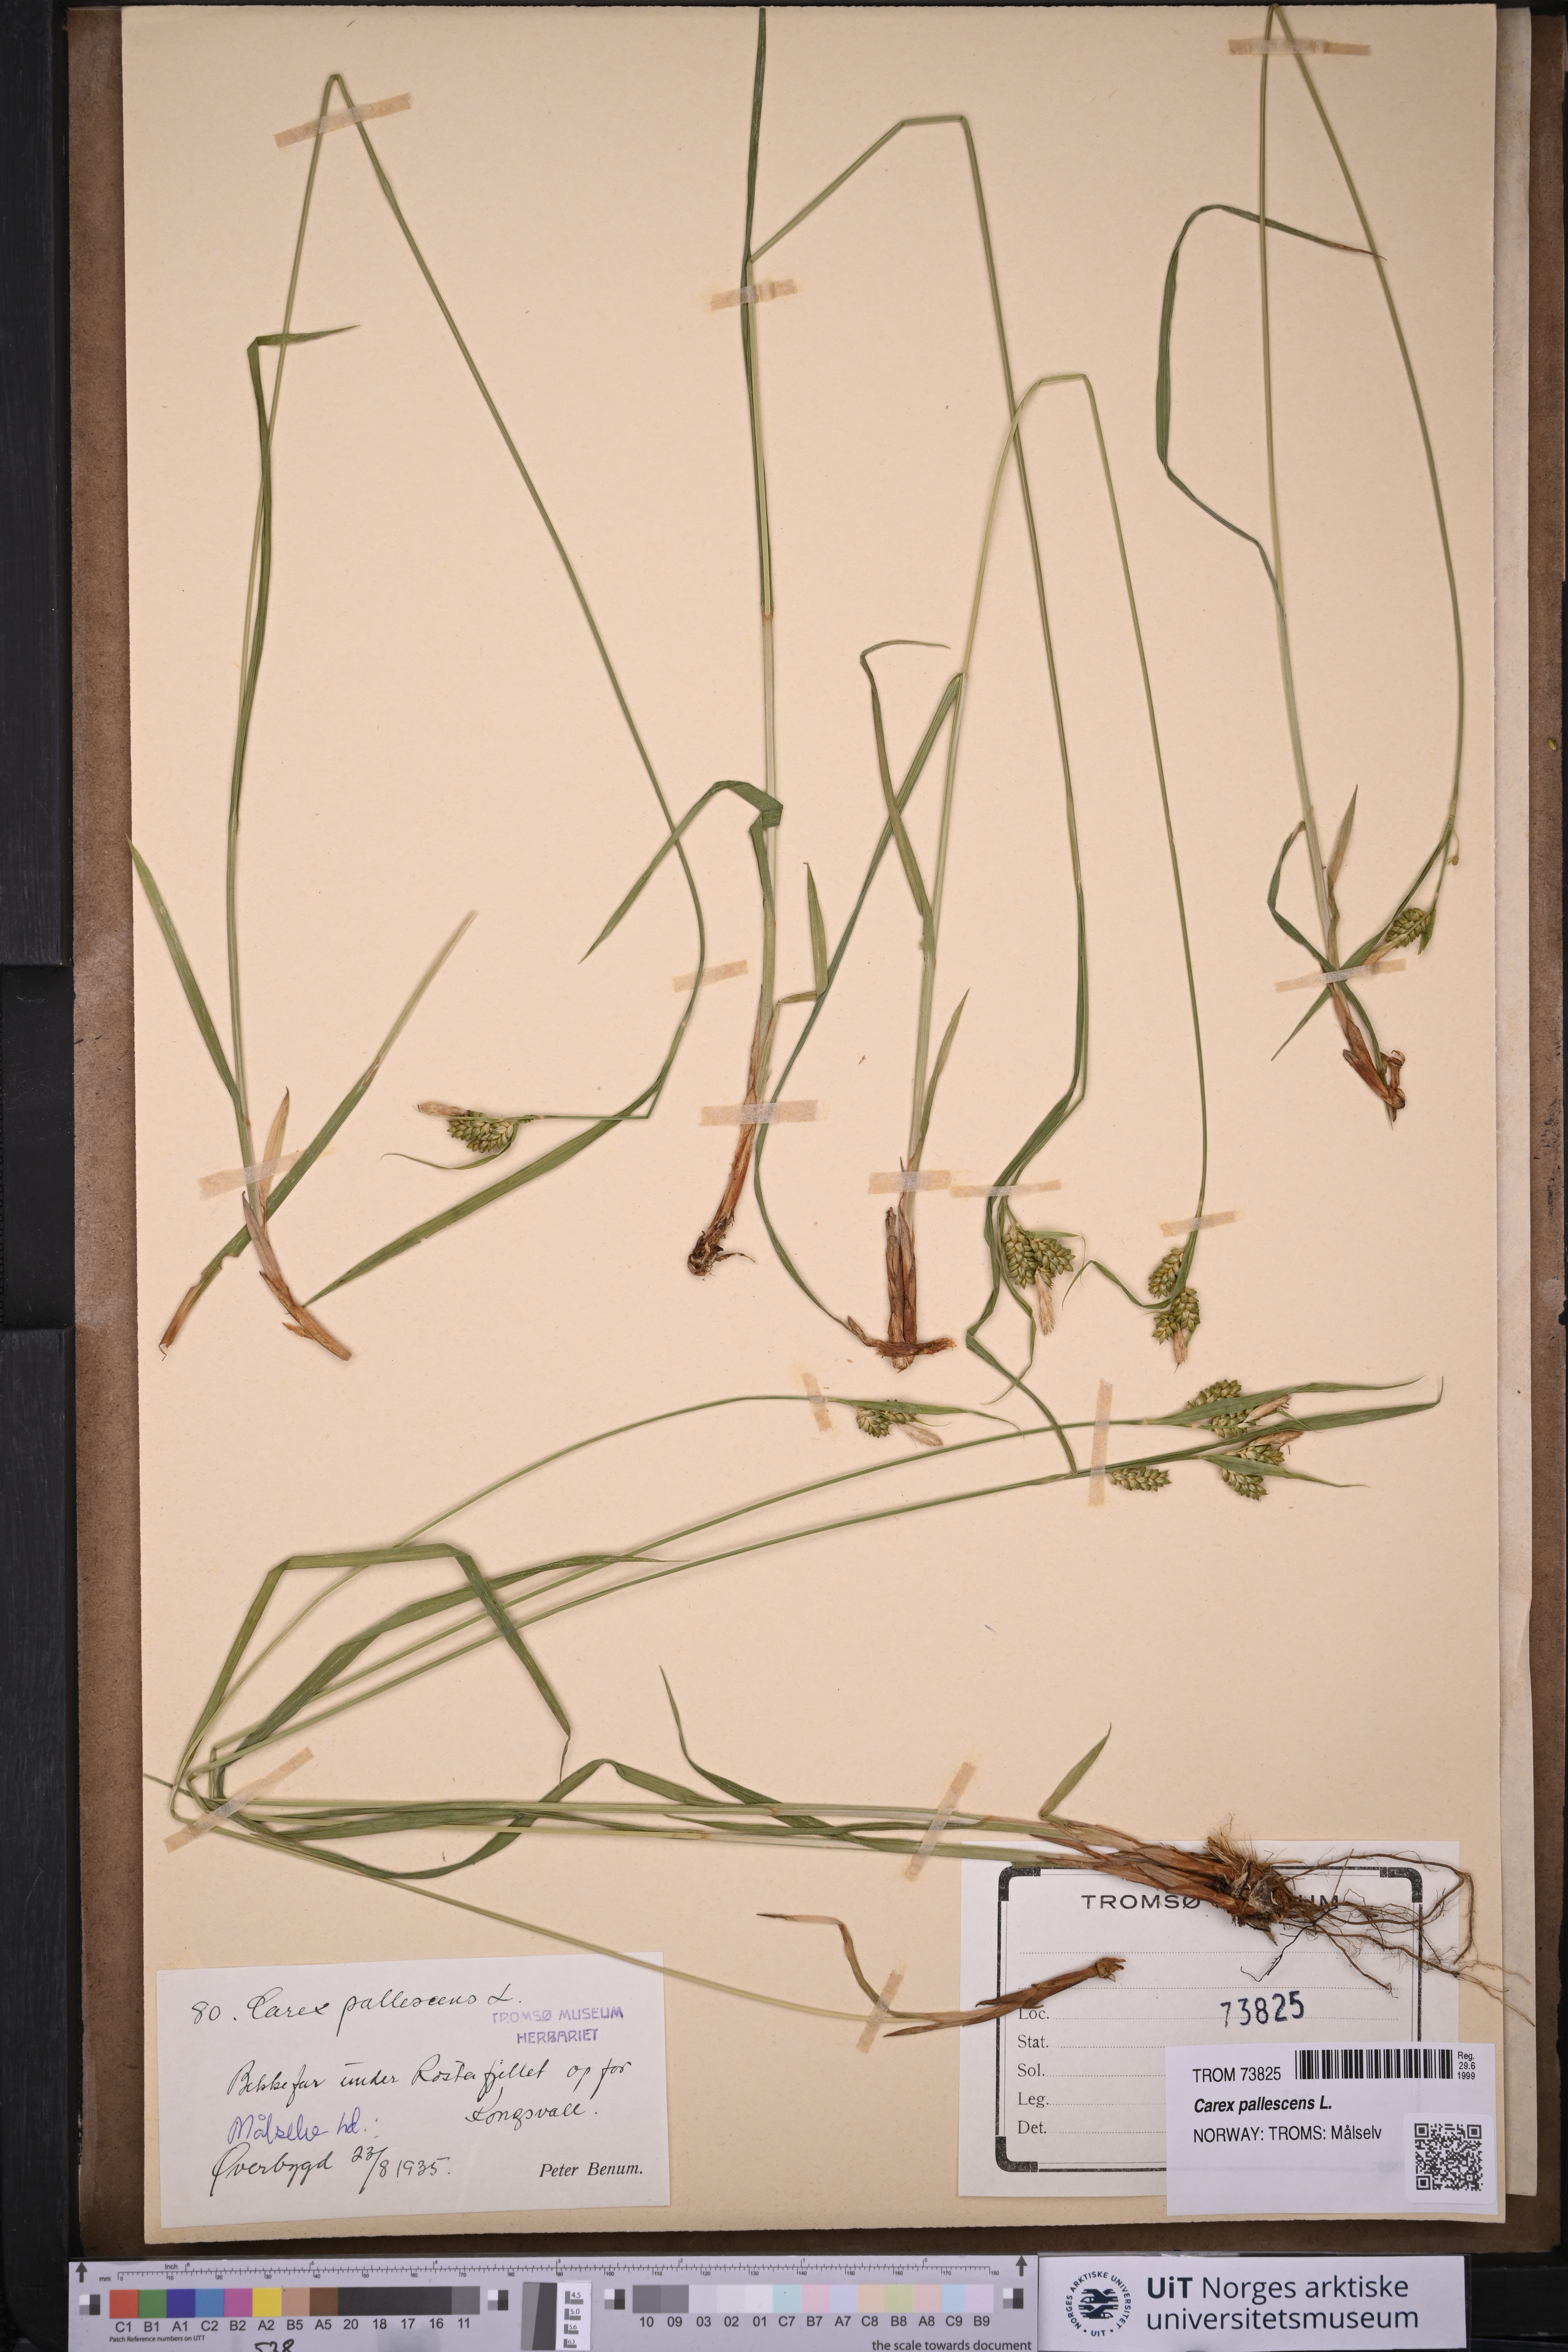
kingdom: Plantae
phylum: Tracheophyta
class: Liliopsida
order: Poales
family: Cyperaceae
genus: Carex
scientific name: Carex pallescens
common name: Pale sedge
